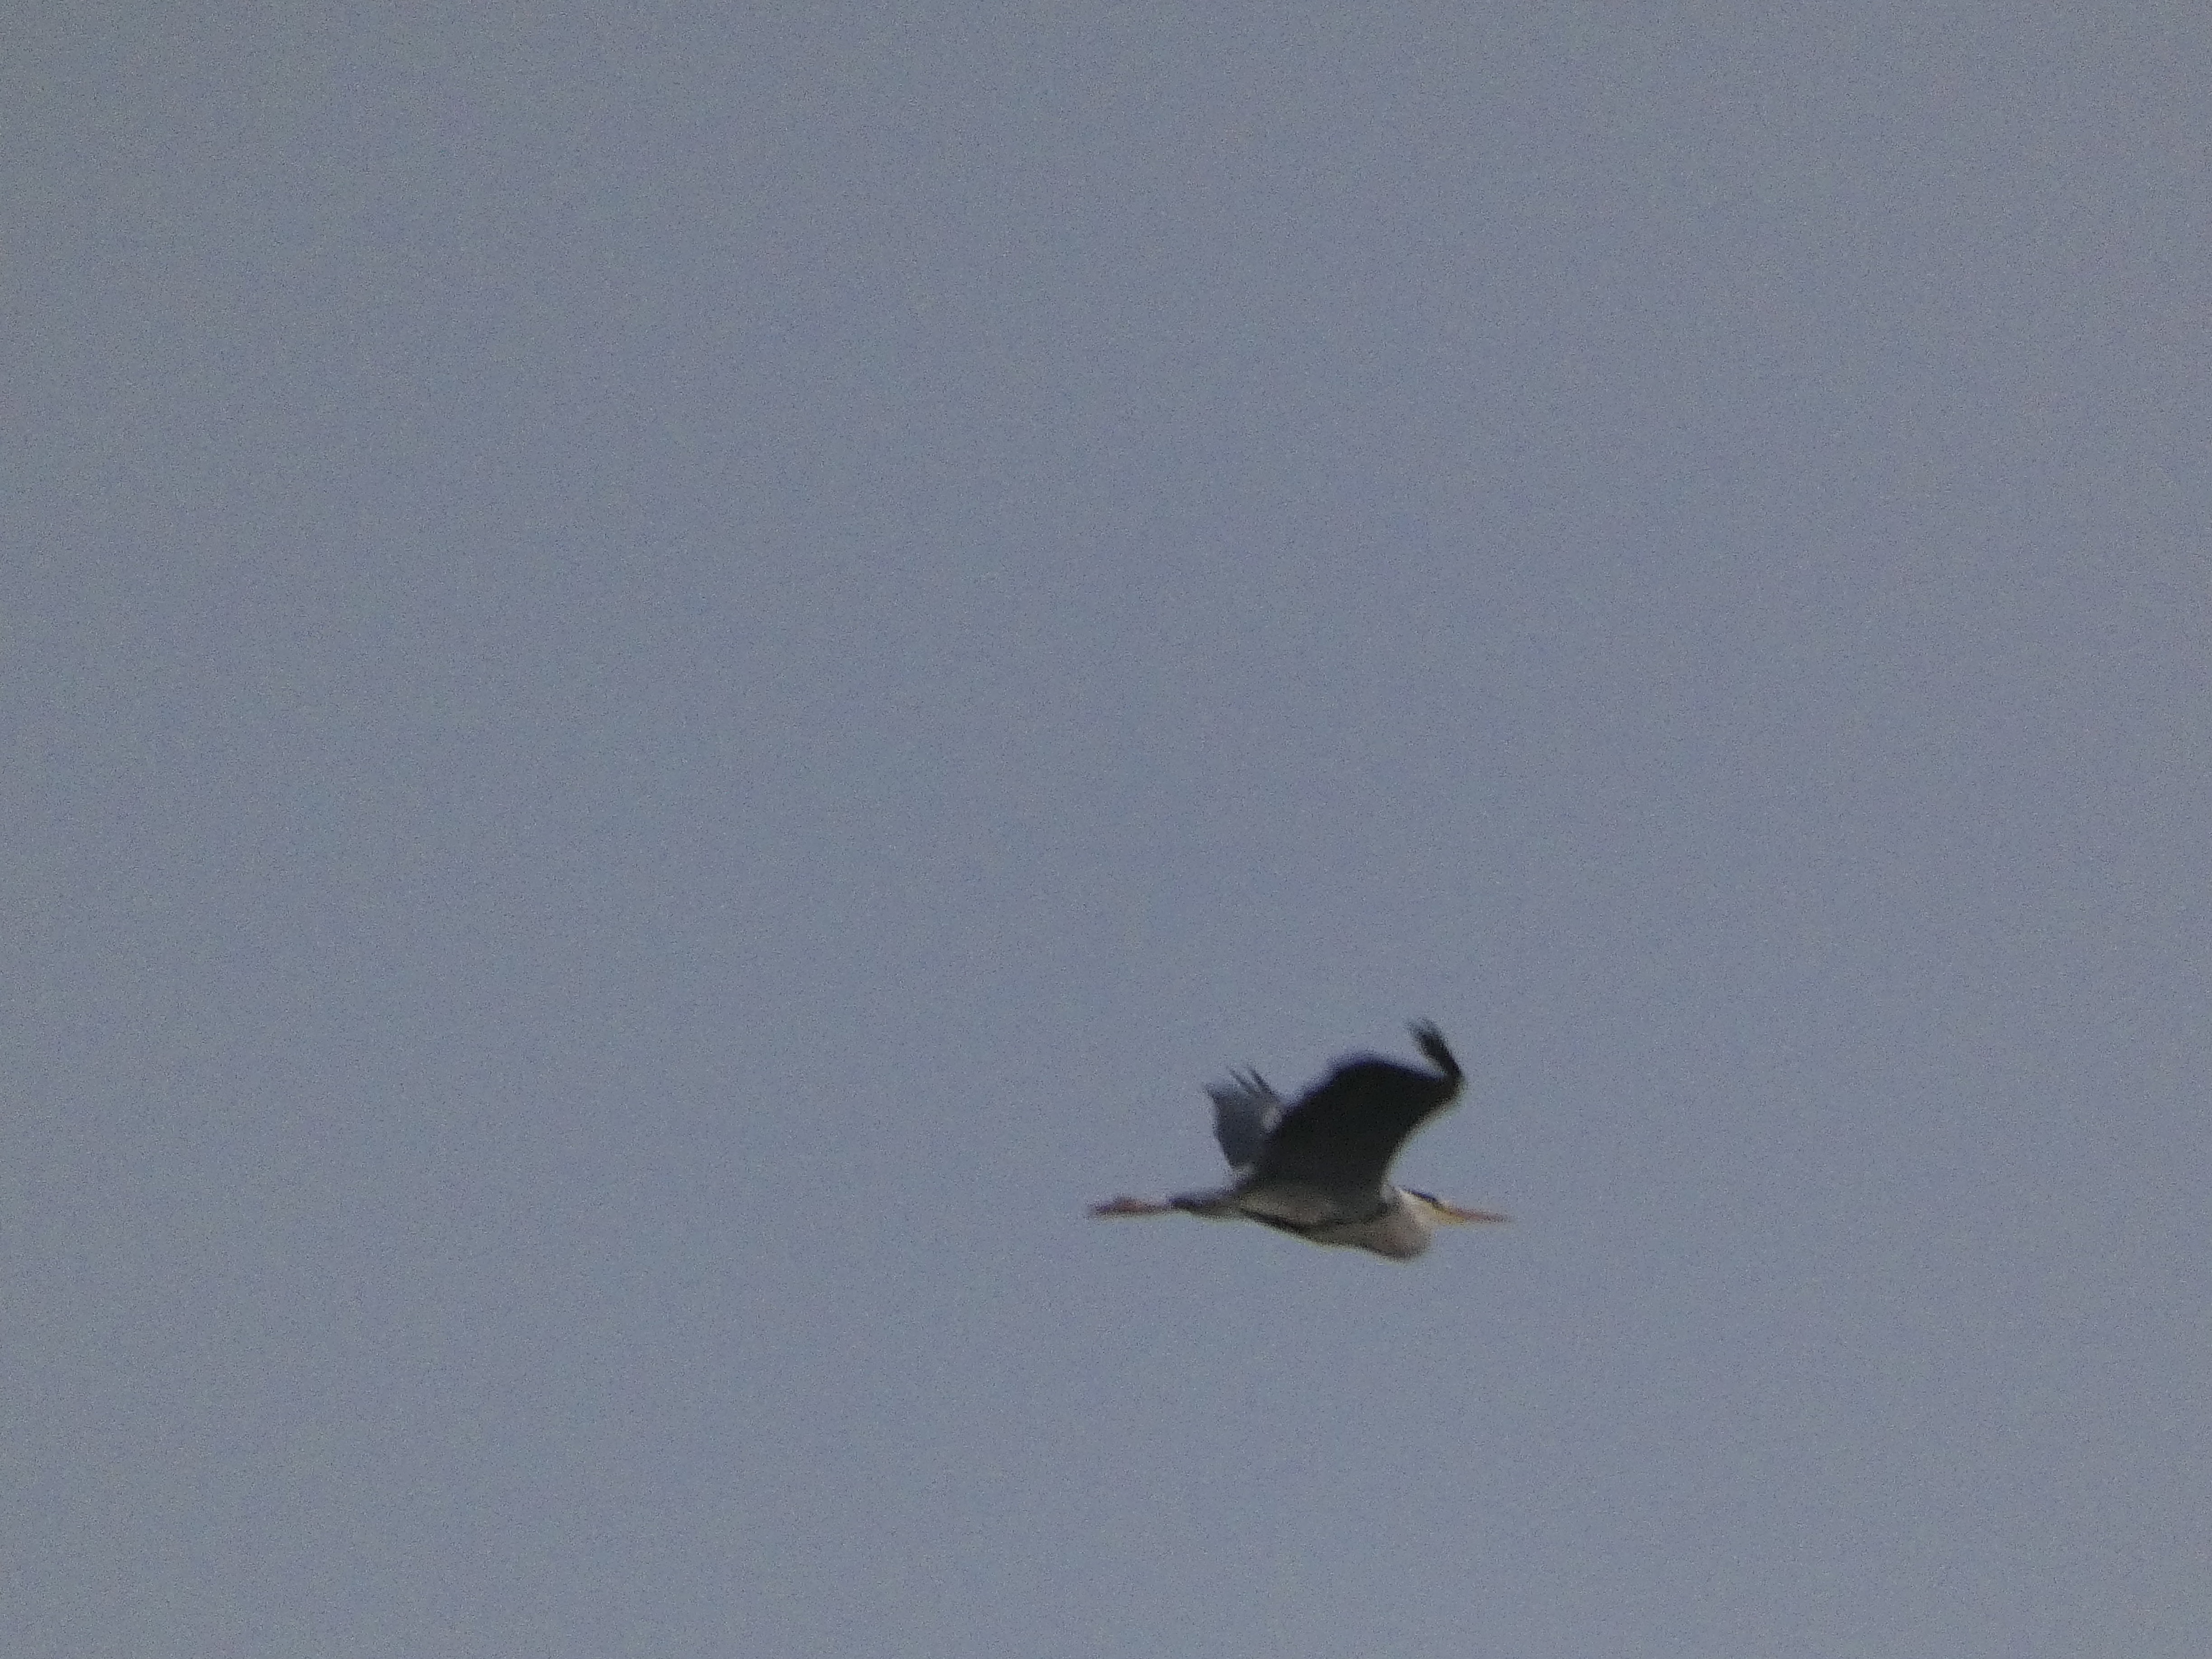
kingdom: Animalia
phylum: Chordata
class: Aves
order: Pelecaniformes
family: Ardeidae
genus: Ardea
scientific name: Ardea cinerea
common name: Fiskehejre
